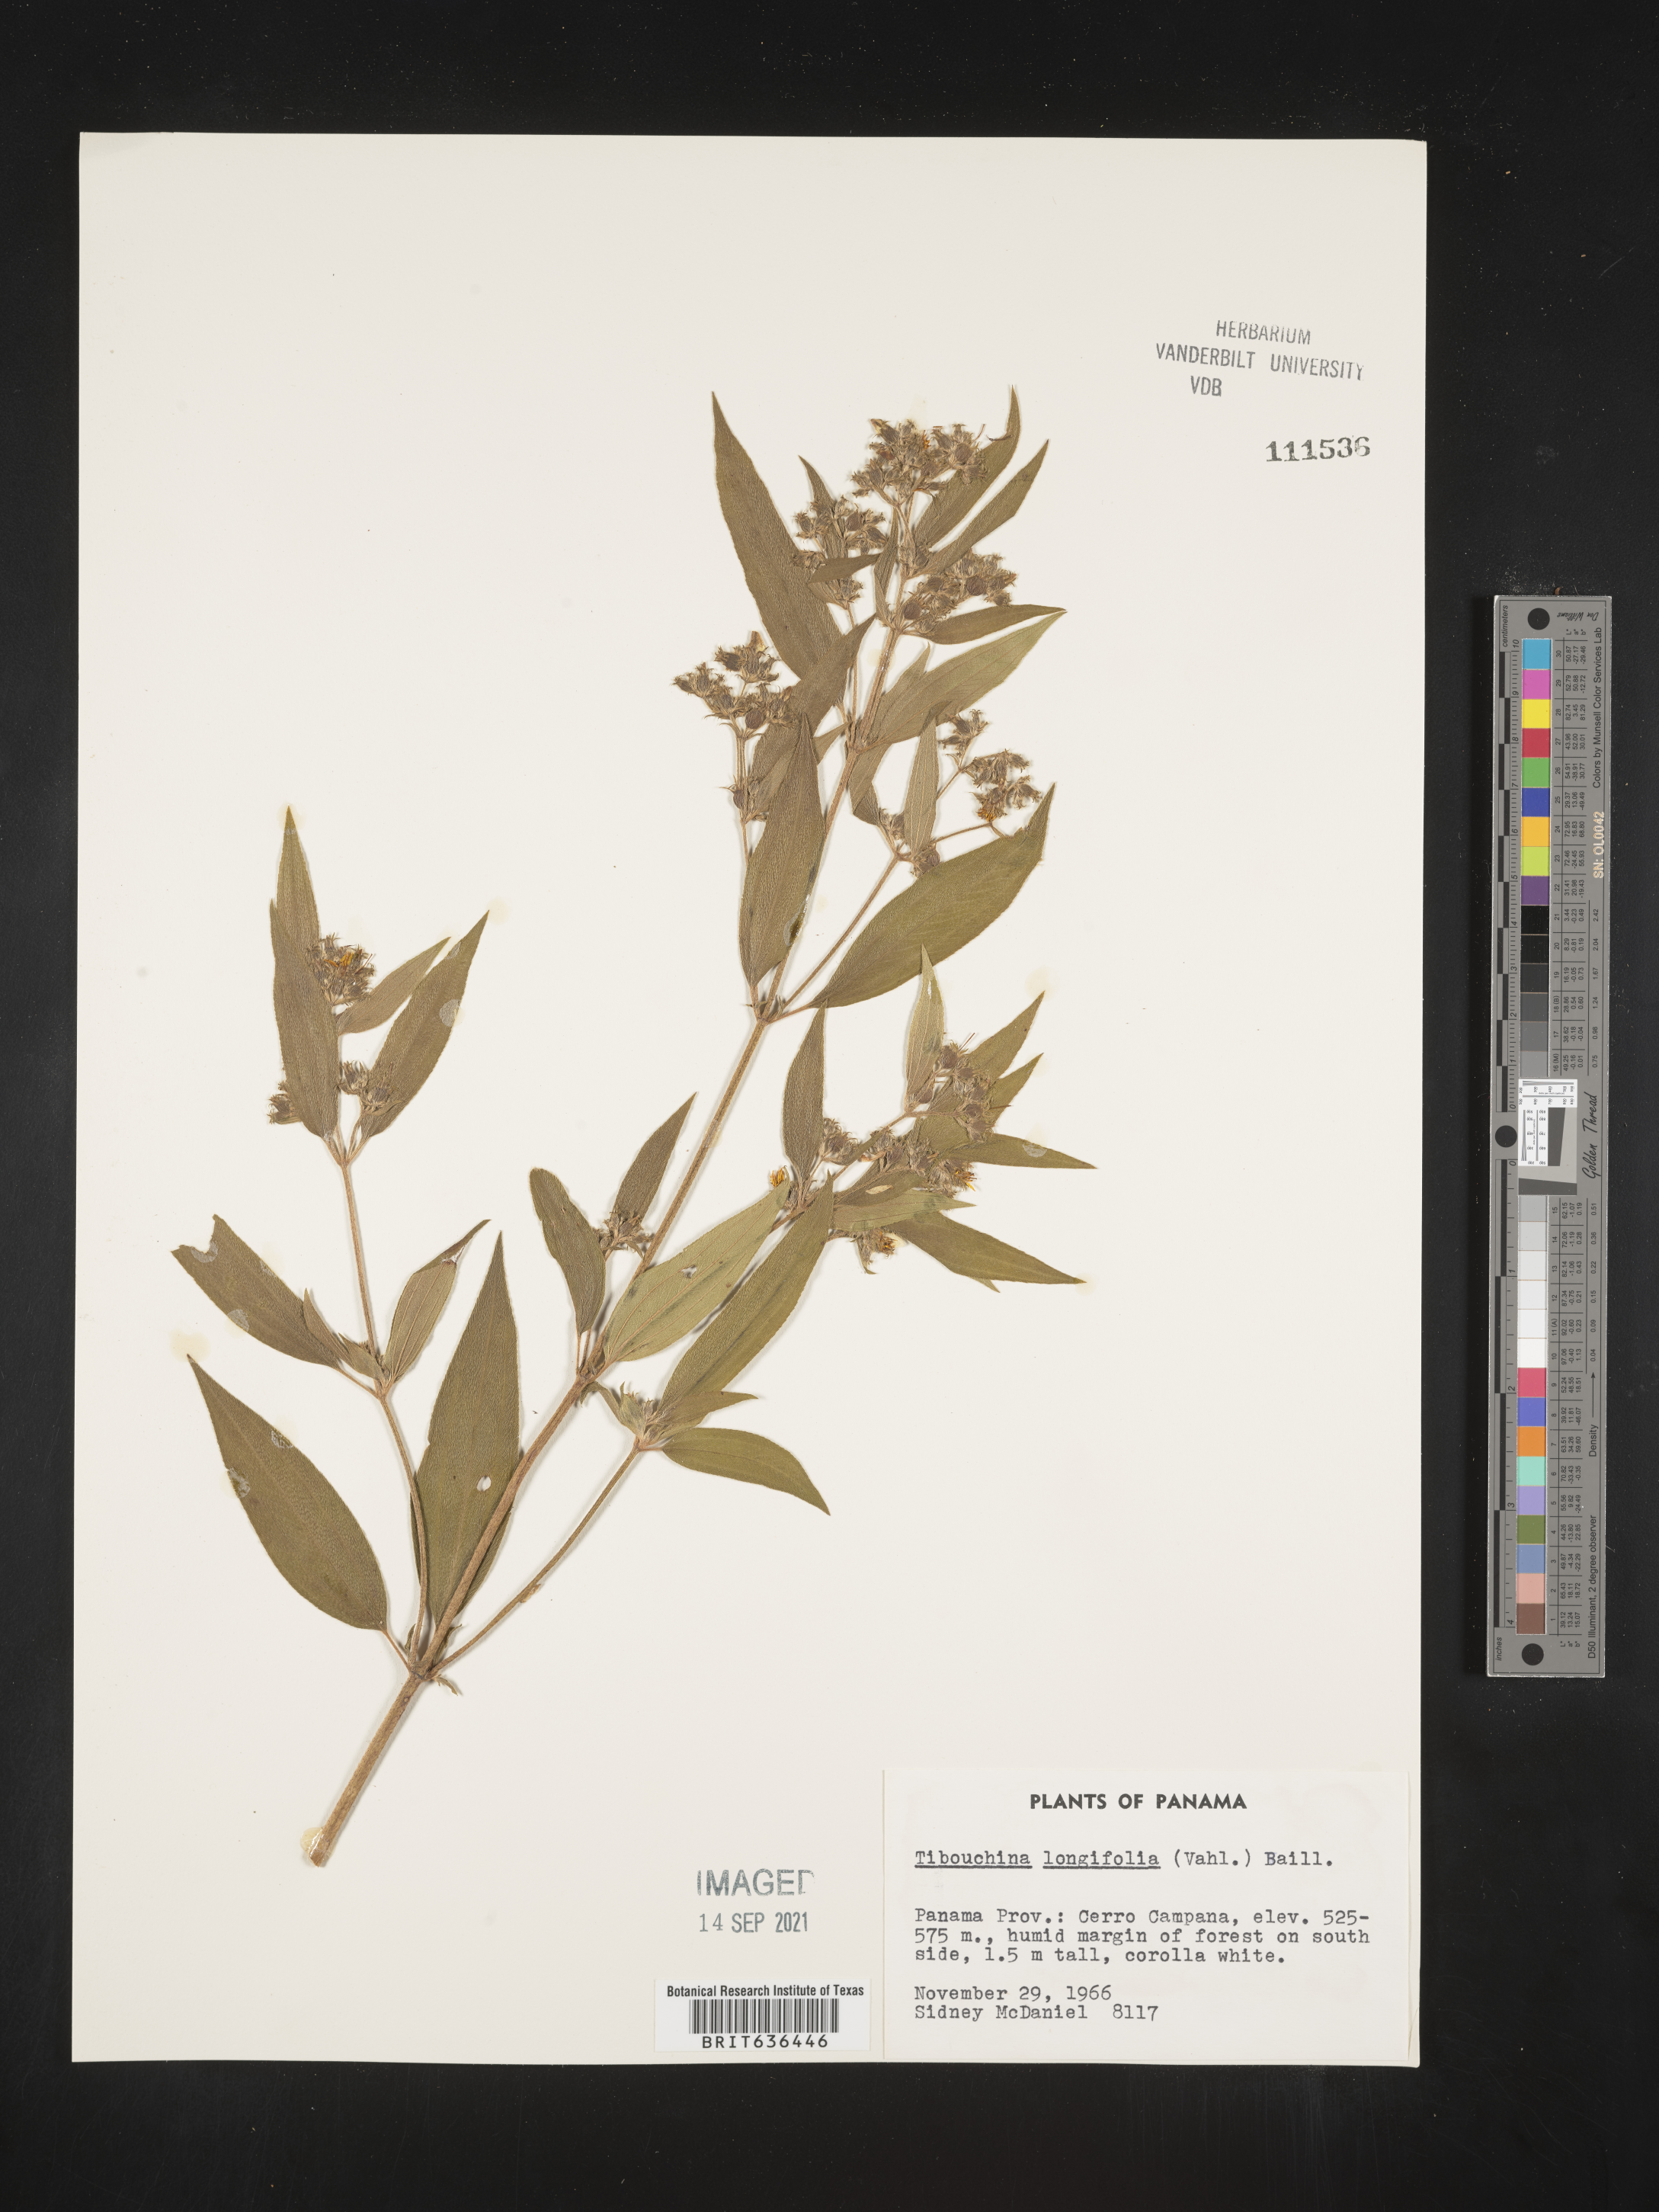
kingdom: Plantae
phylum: Tracheophyta
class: Magnoliopsida
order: Myrtales
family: Melastomataceae
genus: Tibouchina
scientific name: Tibouchina
